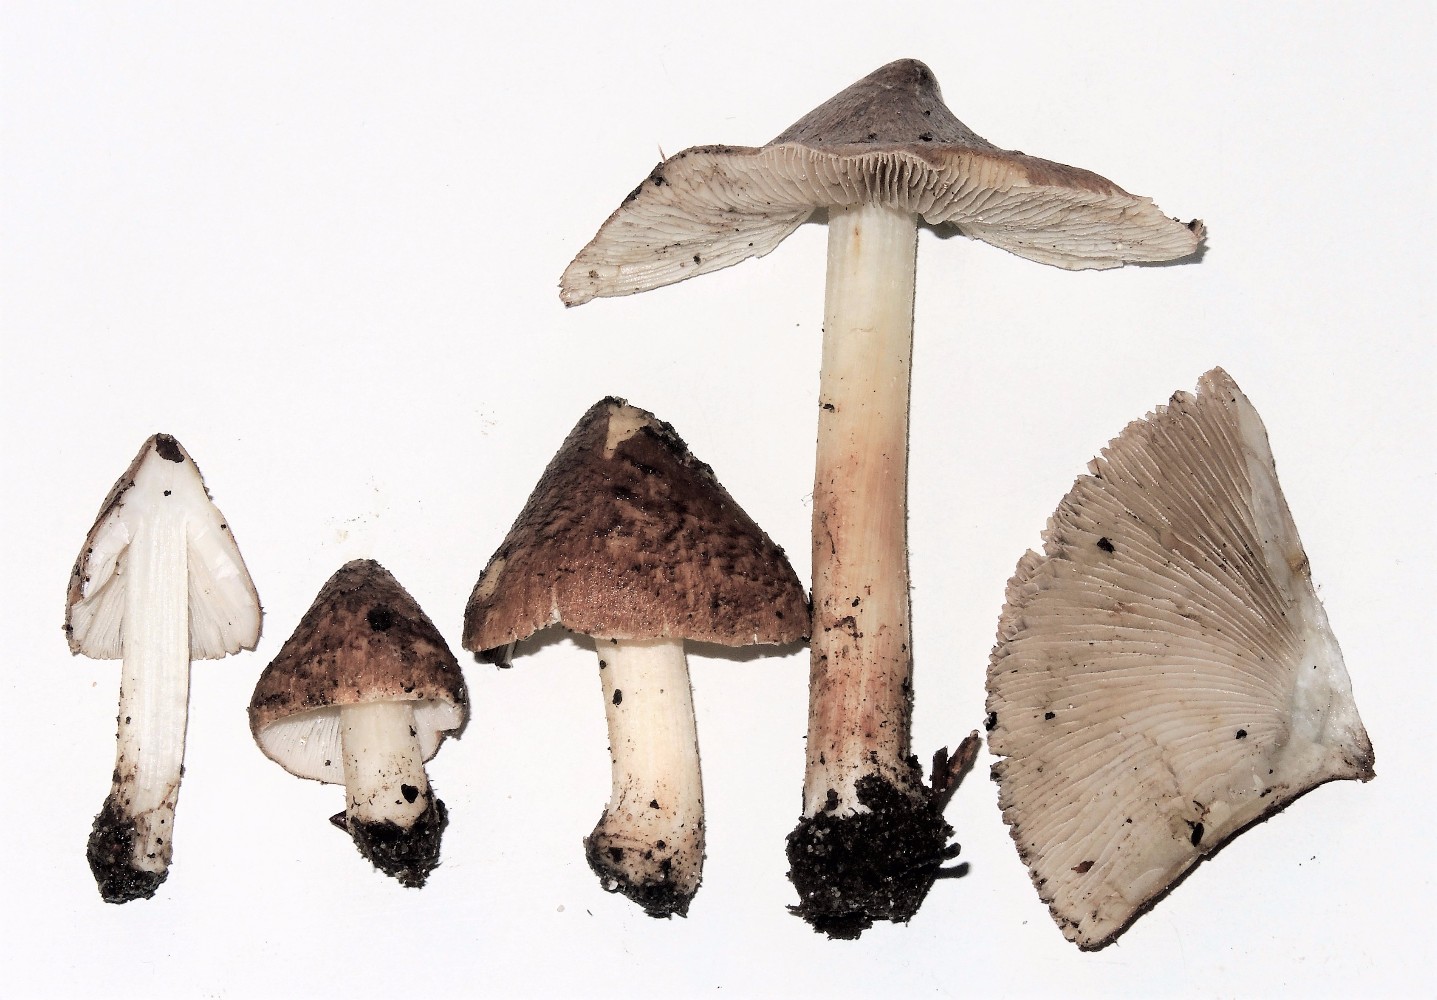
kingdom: Fungi
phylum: Basidiomycota
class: Agaricomycetes
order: Agaricales
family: Inocybaceae
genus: Inosperma
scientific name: Inosperma
